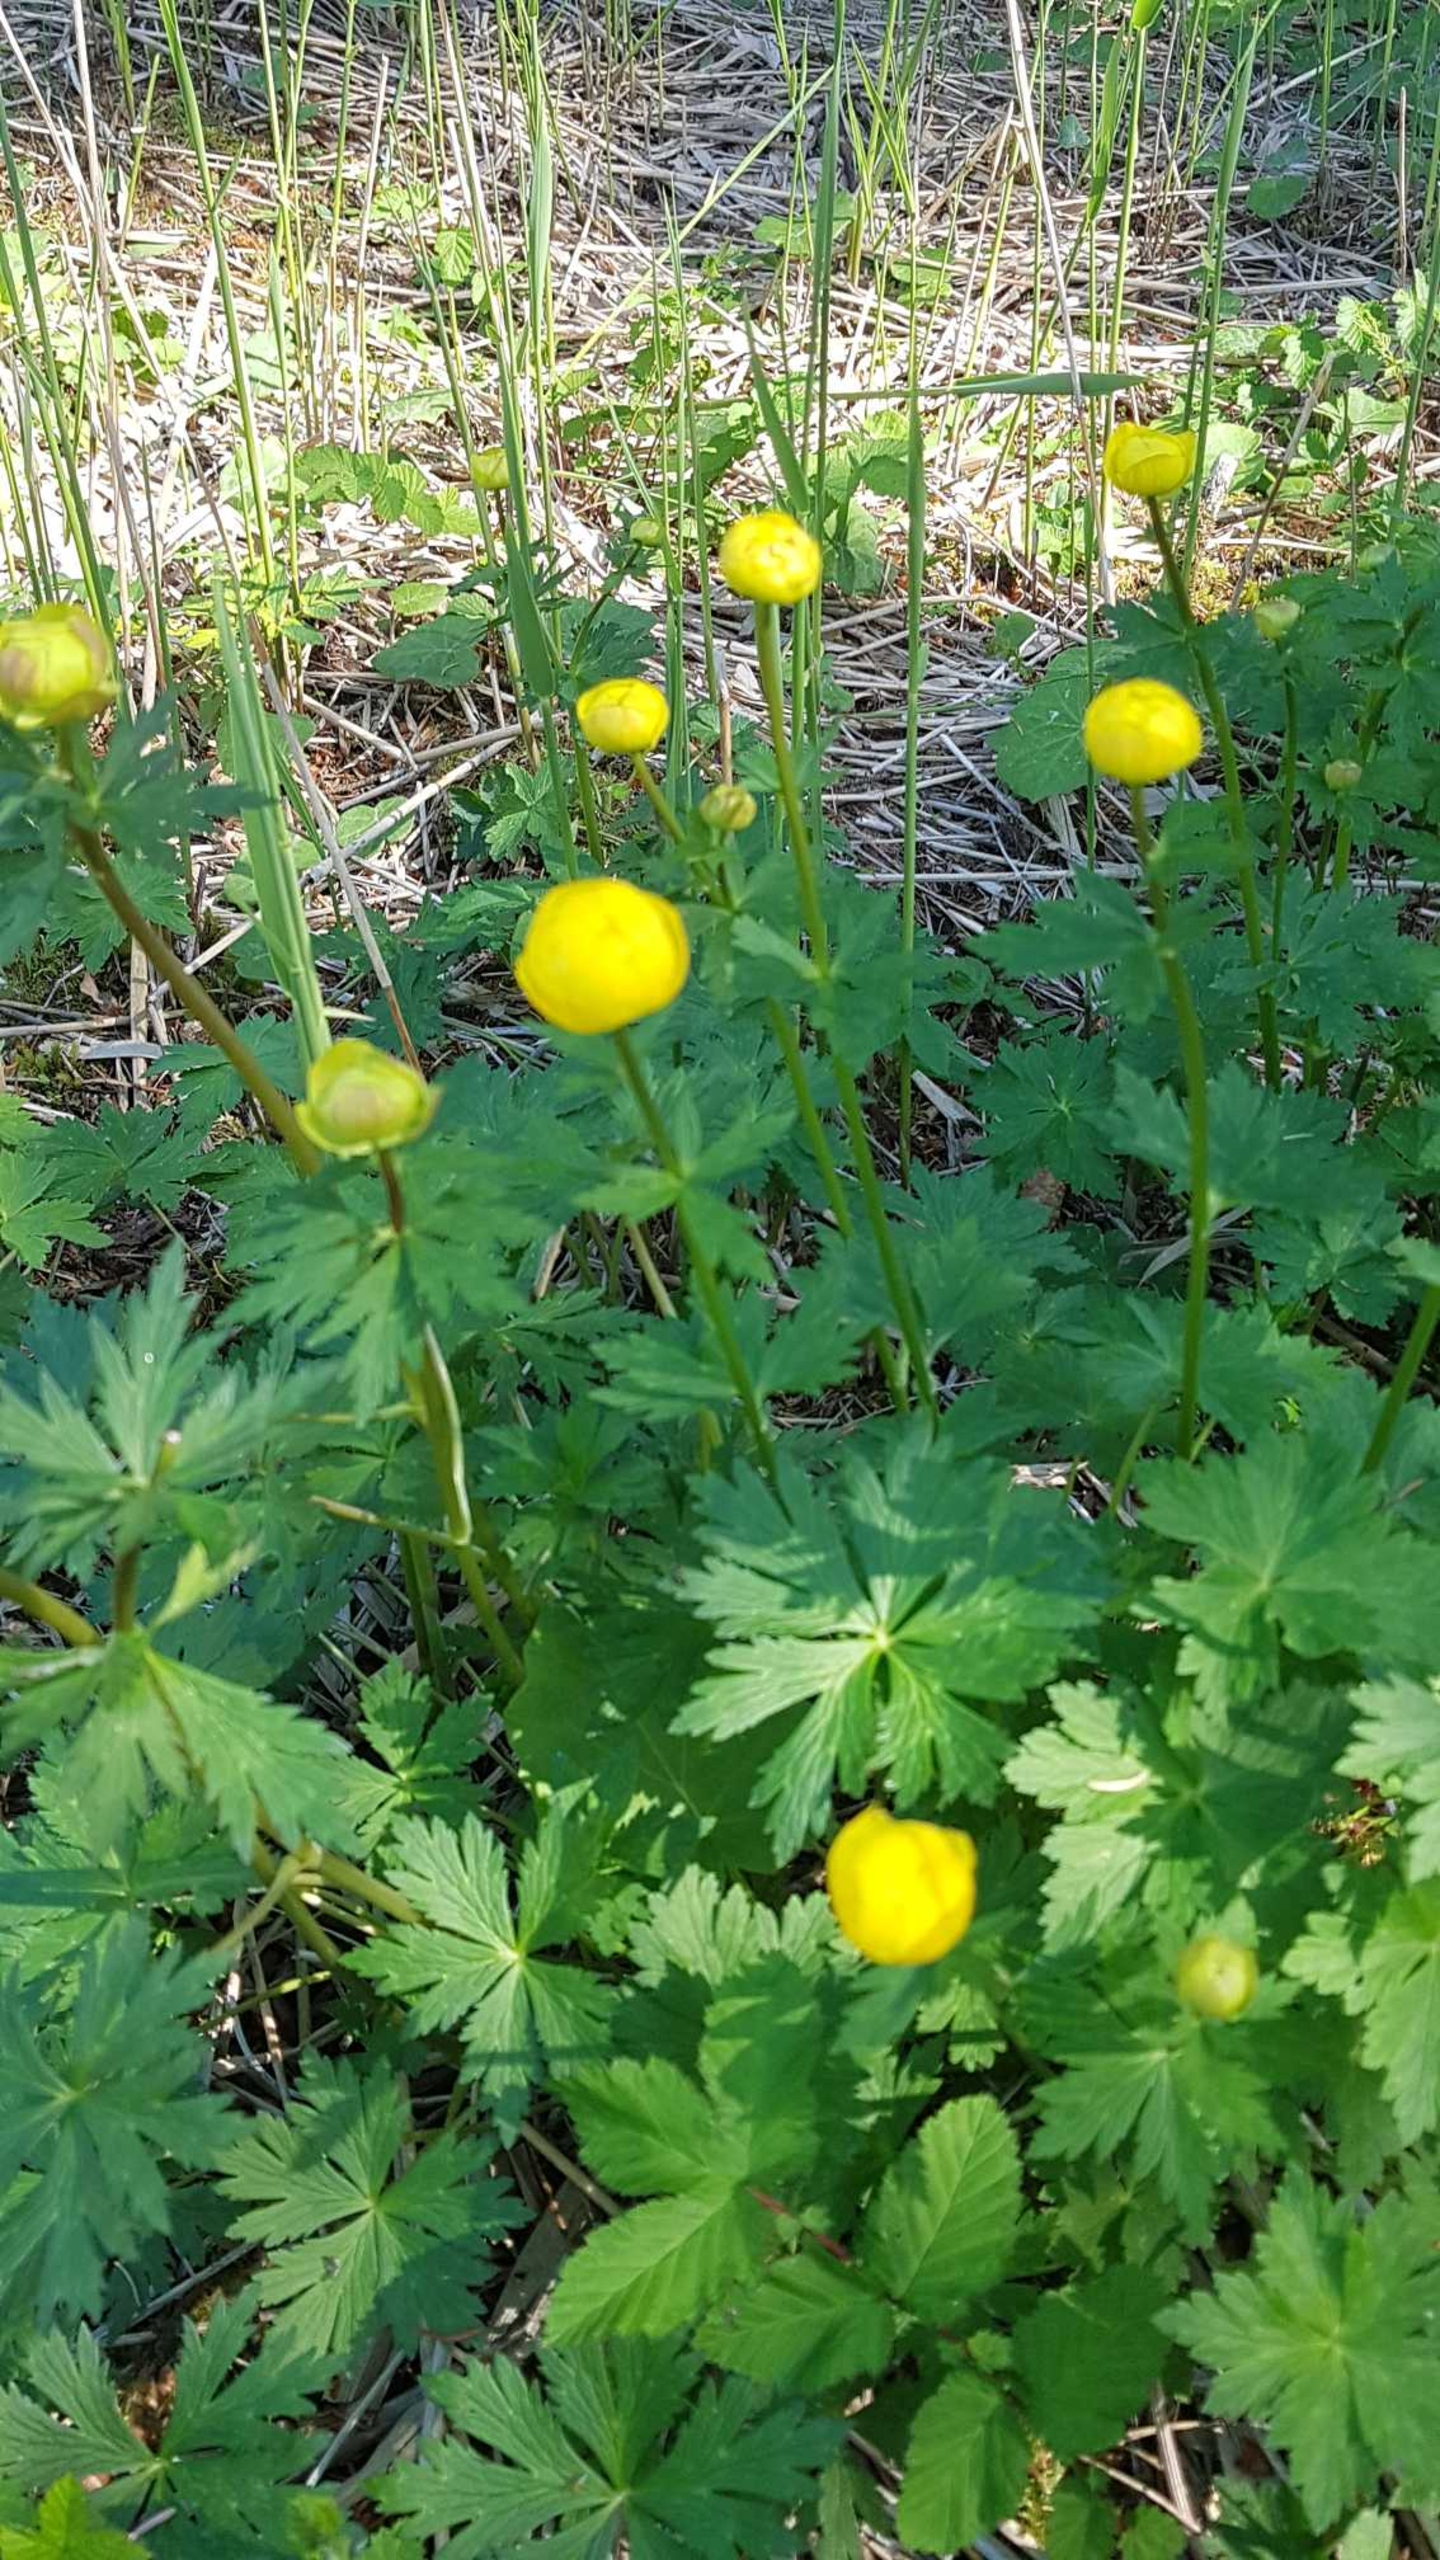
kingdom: Plantae
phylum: Tracheophyta
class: Magnoliopsida
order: Ranunculales
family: Ranunculaceae
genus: Trollius
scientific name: Trollius europaeus
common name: Engblomme
